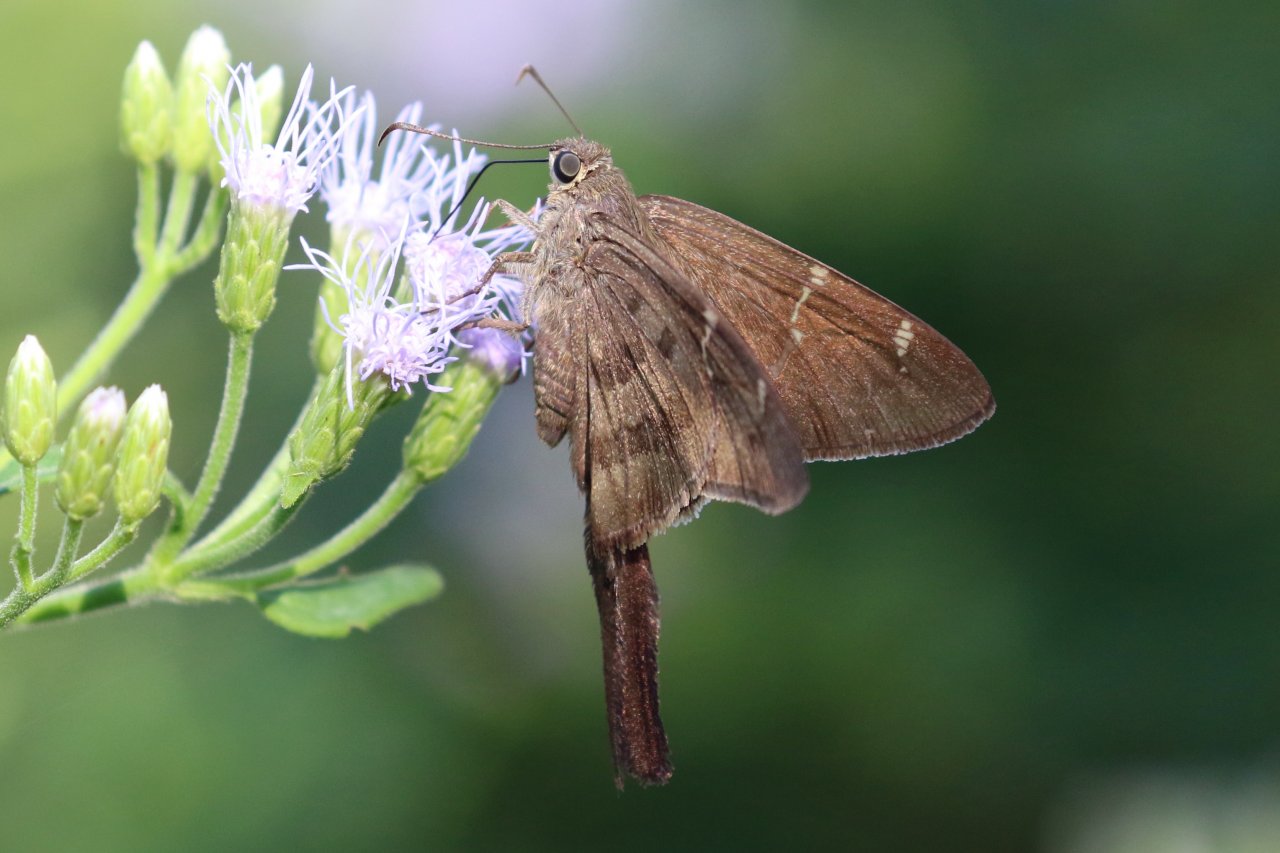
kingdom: Animalia
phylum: Arthropoda
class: Insecta
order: Lepidoptera
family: Hesperiidae
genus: Urbanus
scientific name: Urbanus procne
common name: Brown Longtail
